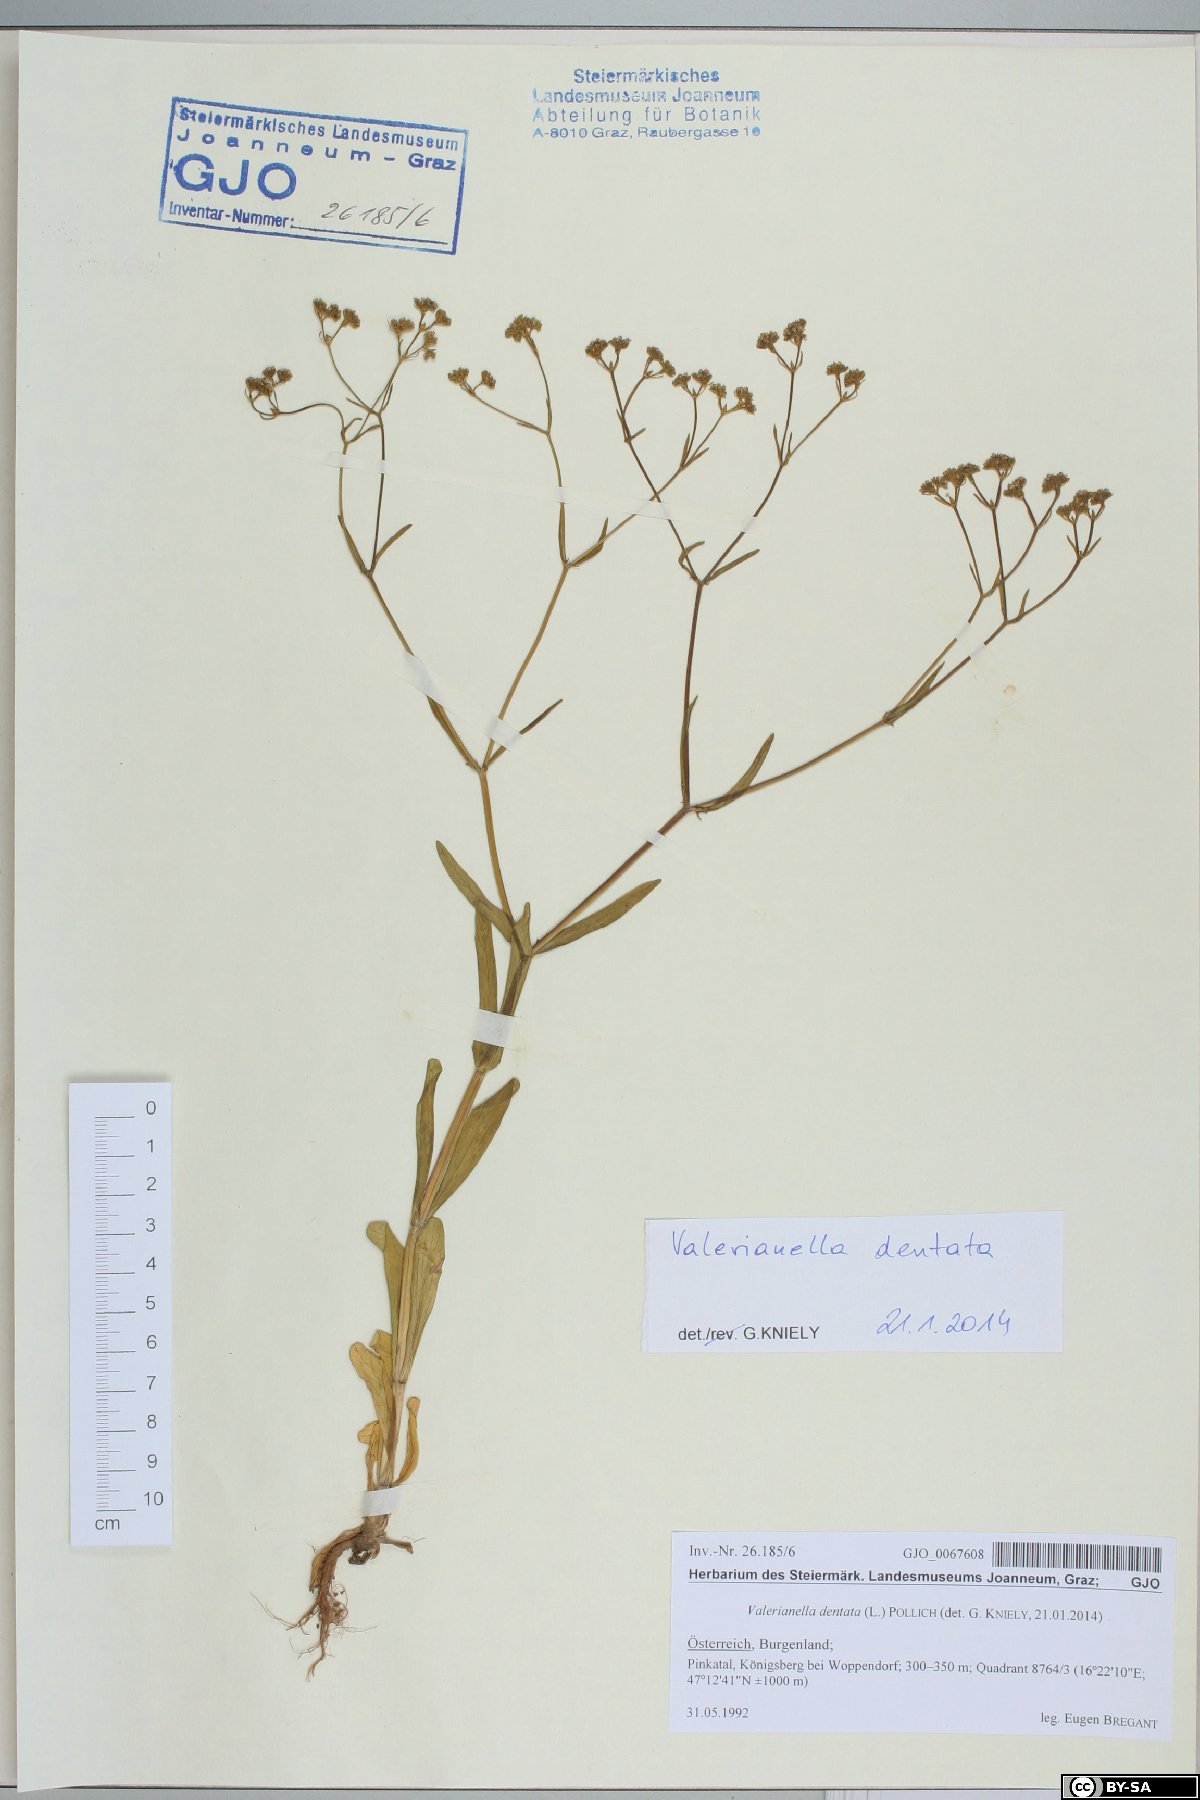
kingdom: Plantae
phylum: Tracheophyta
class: Magnoliopsida
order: Dipsacales
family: Caprifoliaceae
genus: Valerianella
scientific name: Valerianella dentata
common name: Narrow-fruited cornsalad
